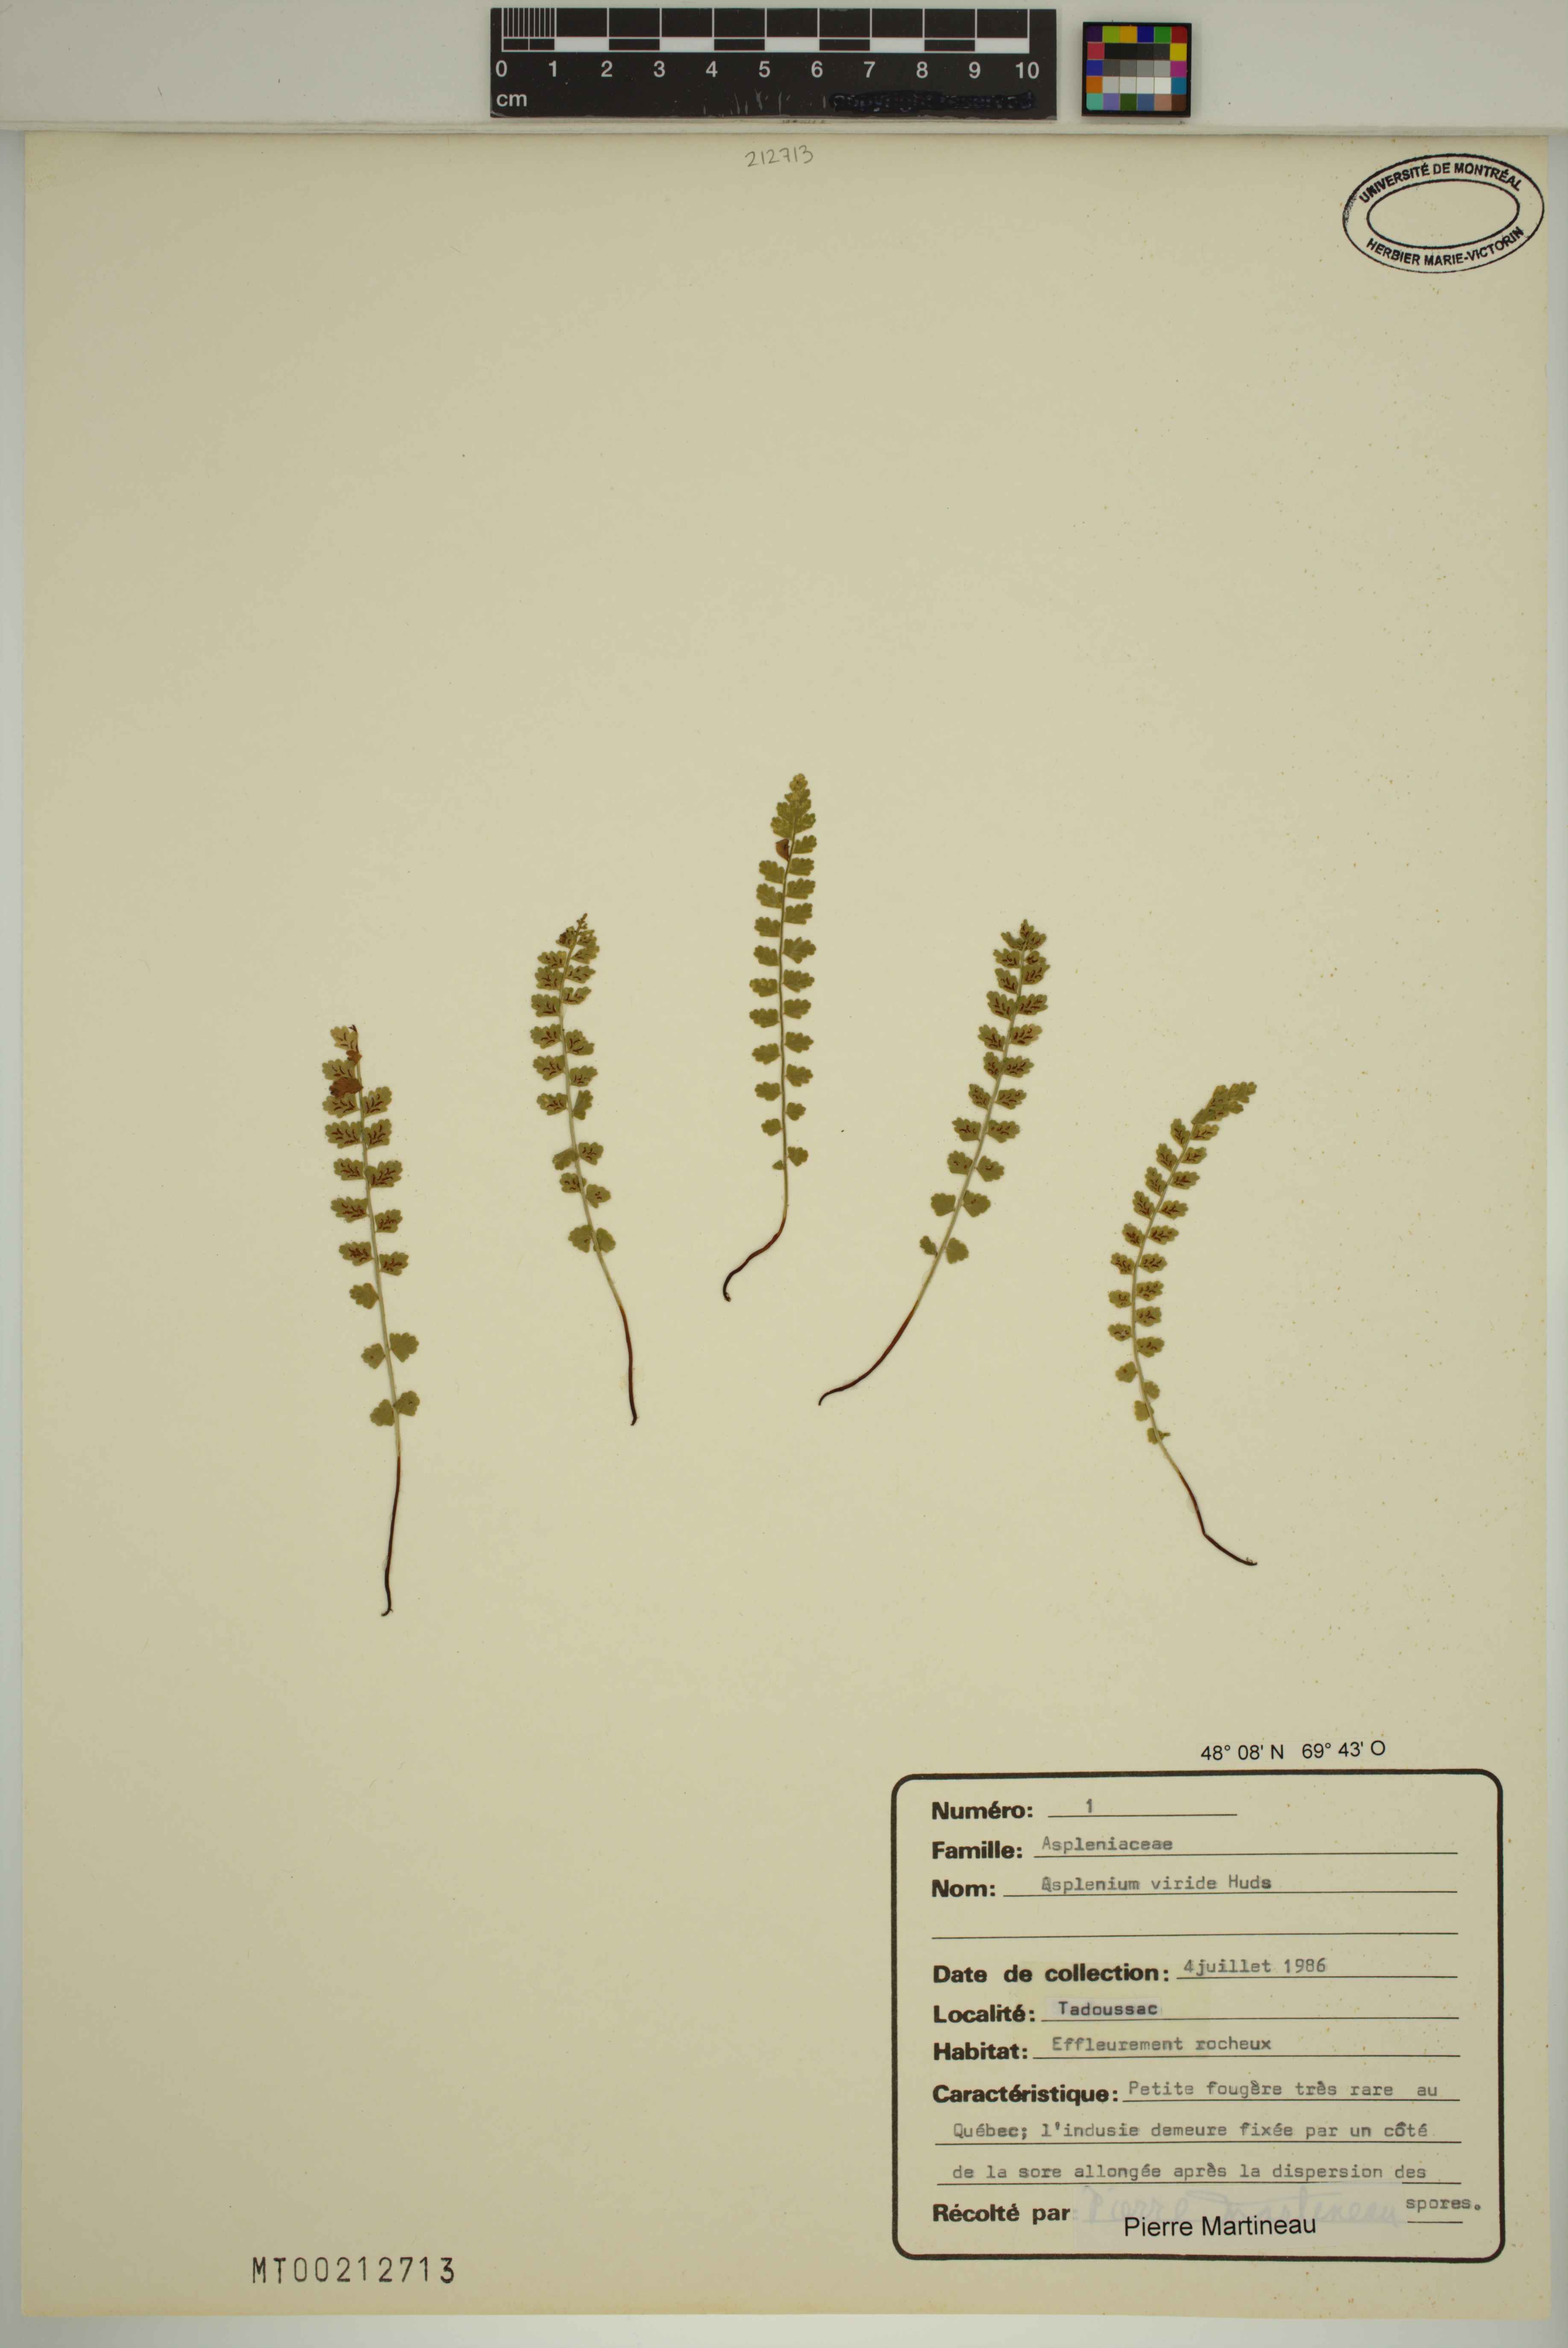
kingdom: Plantae
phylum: Tracheophyta
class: Polypodiopsida
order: Polypodiales
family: Aspleniaceae
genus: Asplenium
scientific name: Asplenium viride
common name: Green spleenwort
